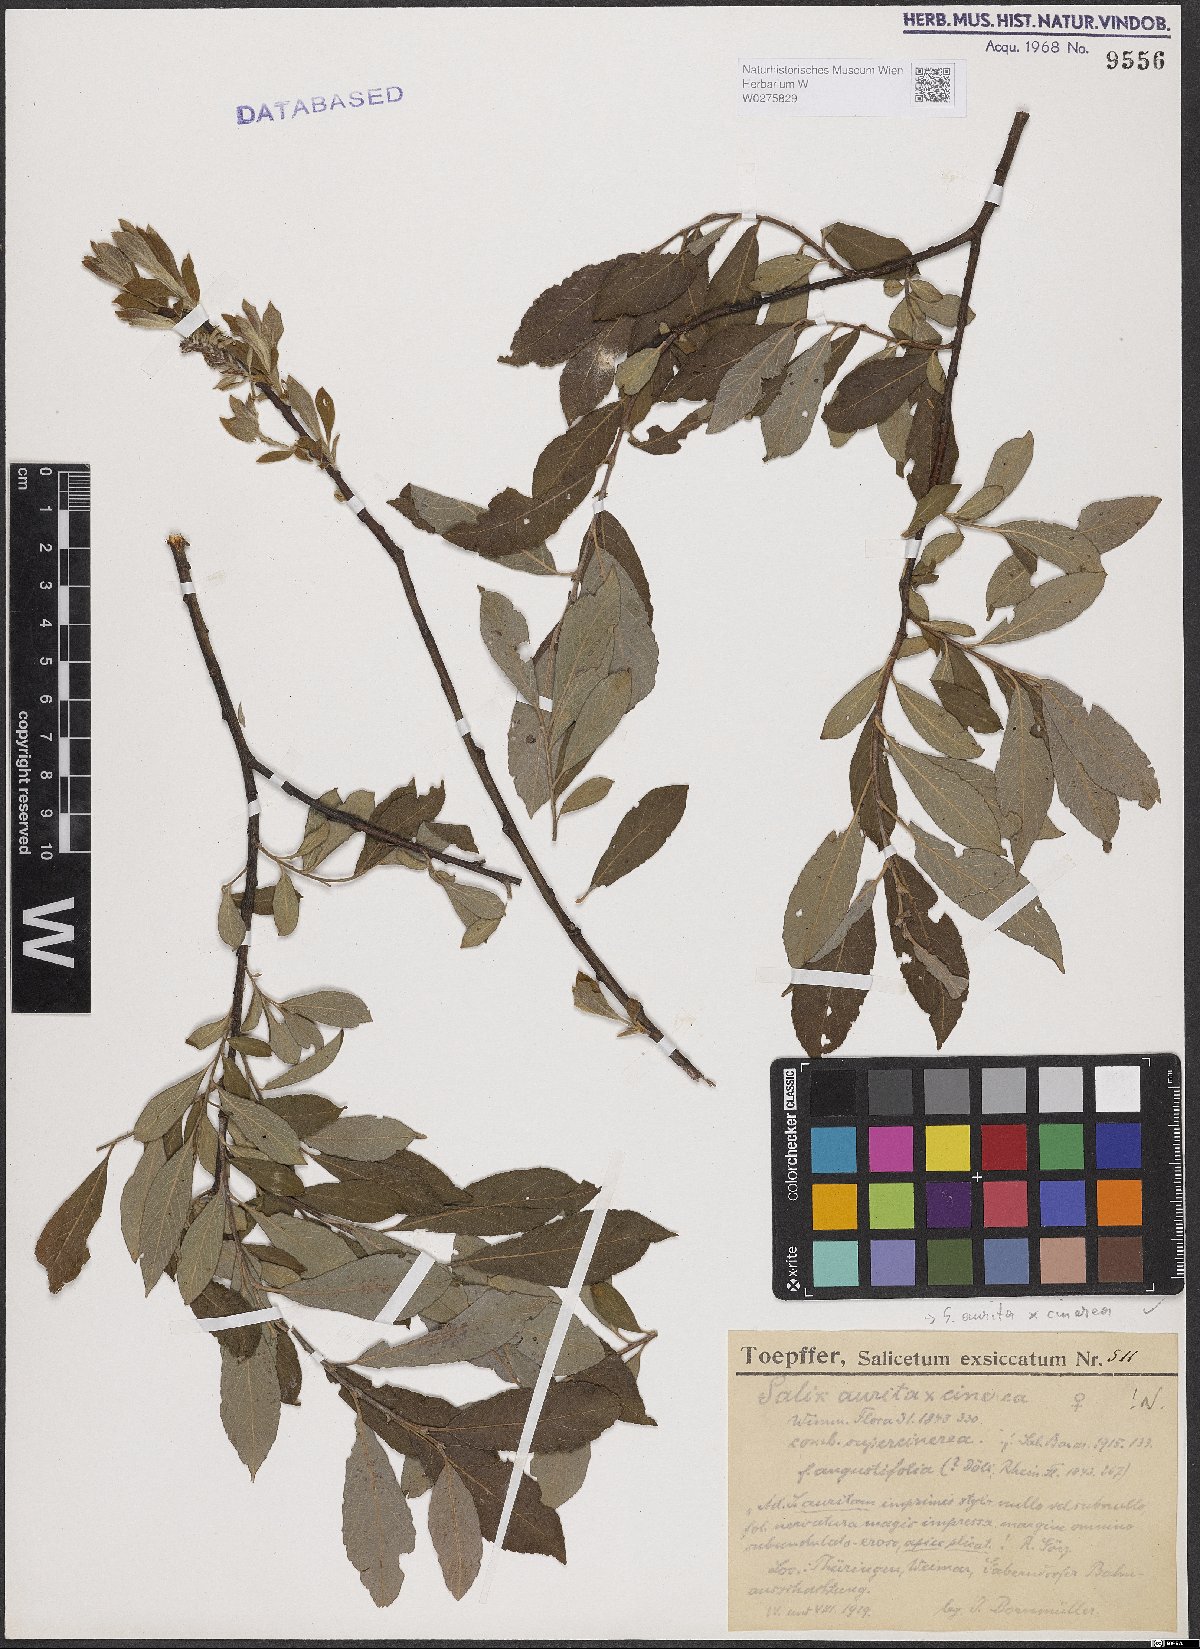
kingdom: Plantae
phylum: Tracheophyta
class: Magnoliopsida
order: Malpighiales
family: Salicaceae
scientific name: Salicaceae
